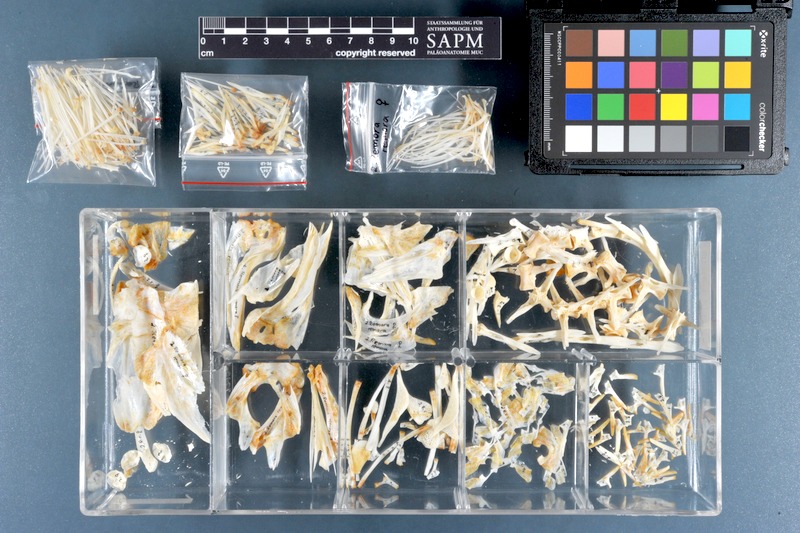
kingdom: Animalia
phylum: Chordata
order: Perciformes
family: Echeneidae
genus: Remora
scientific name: Remora remora
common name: Remora
